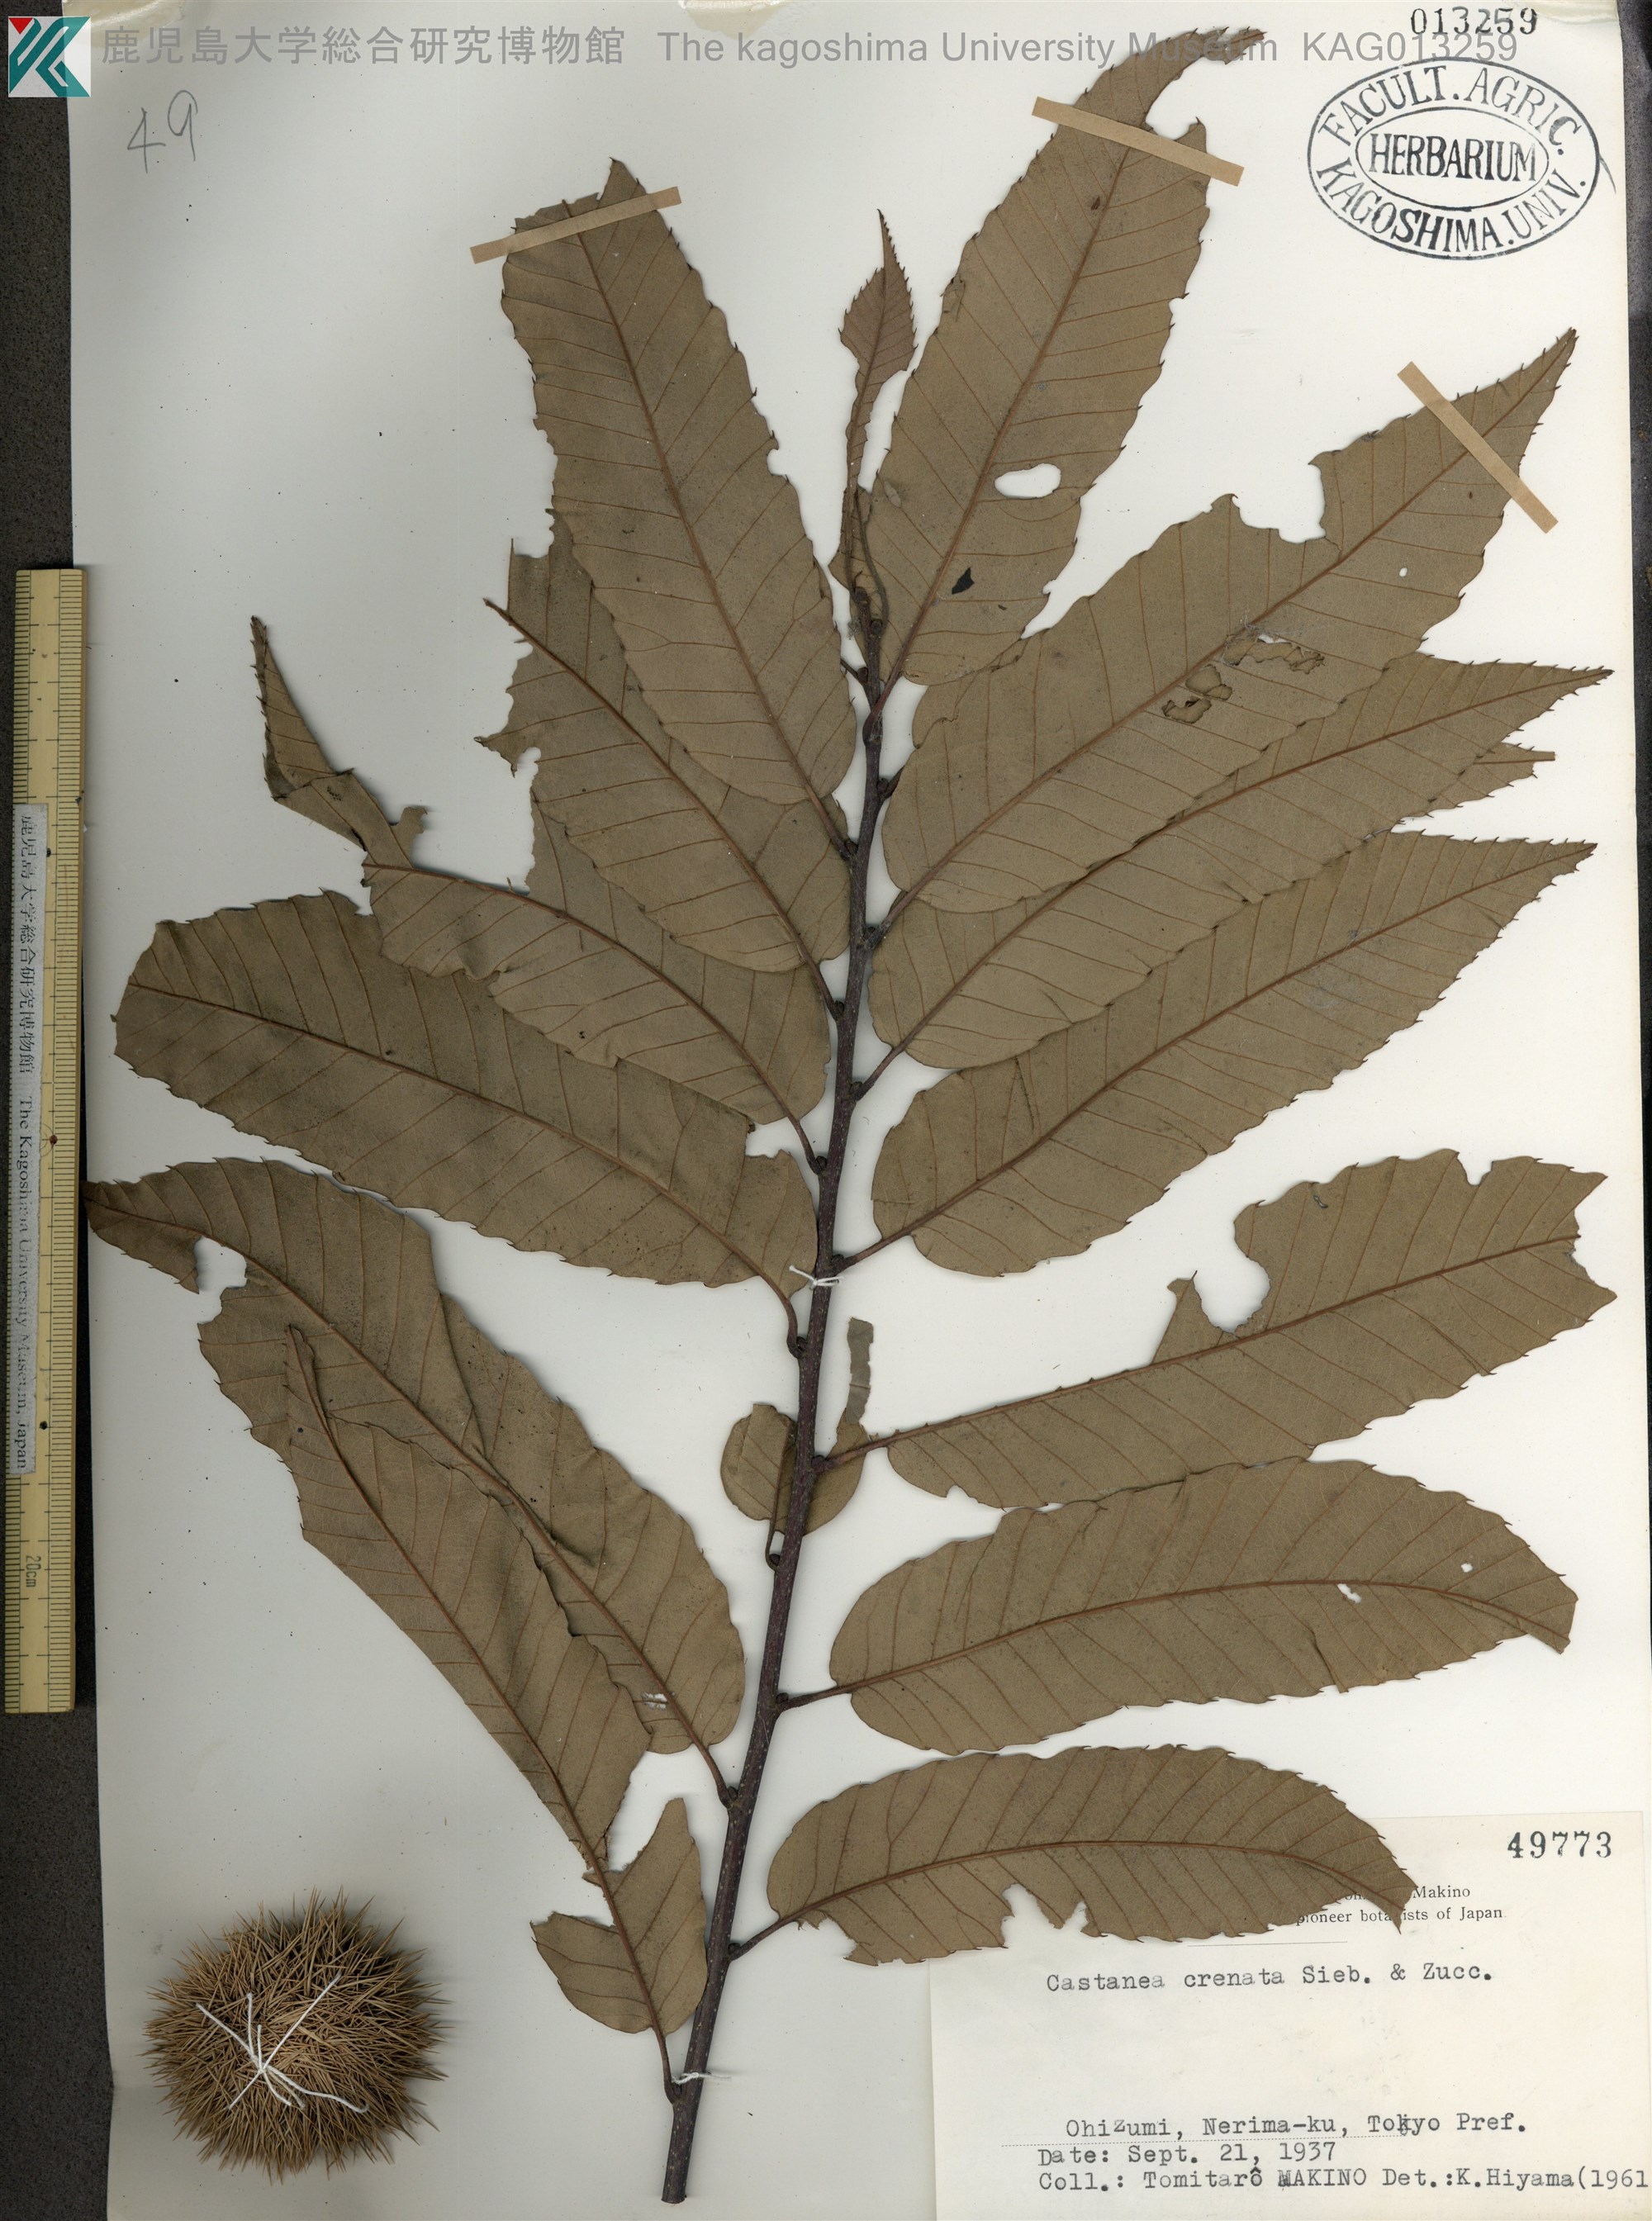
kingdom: Plantae
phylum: Tracheophyta
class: Magnoliopsida
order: Fagales
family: Fagaceae
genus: Castanea
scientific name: Castanea crenata
